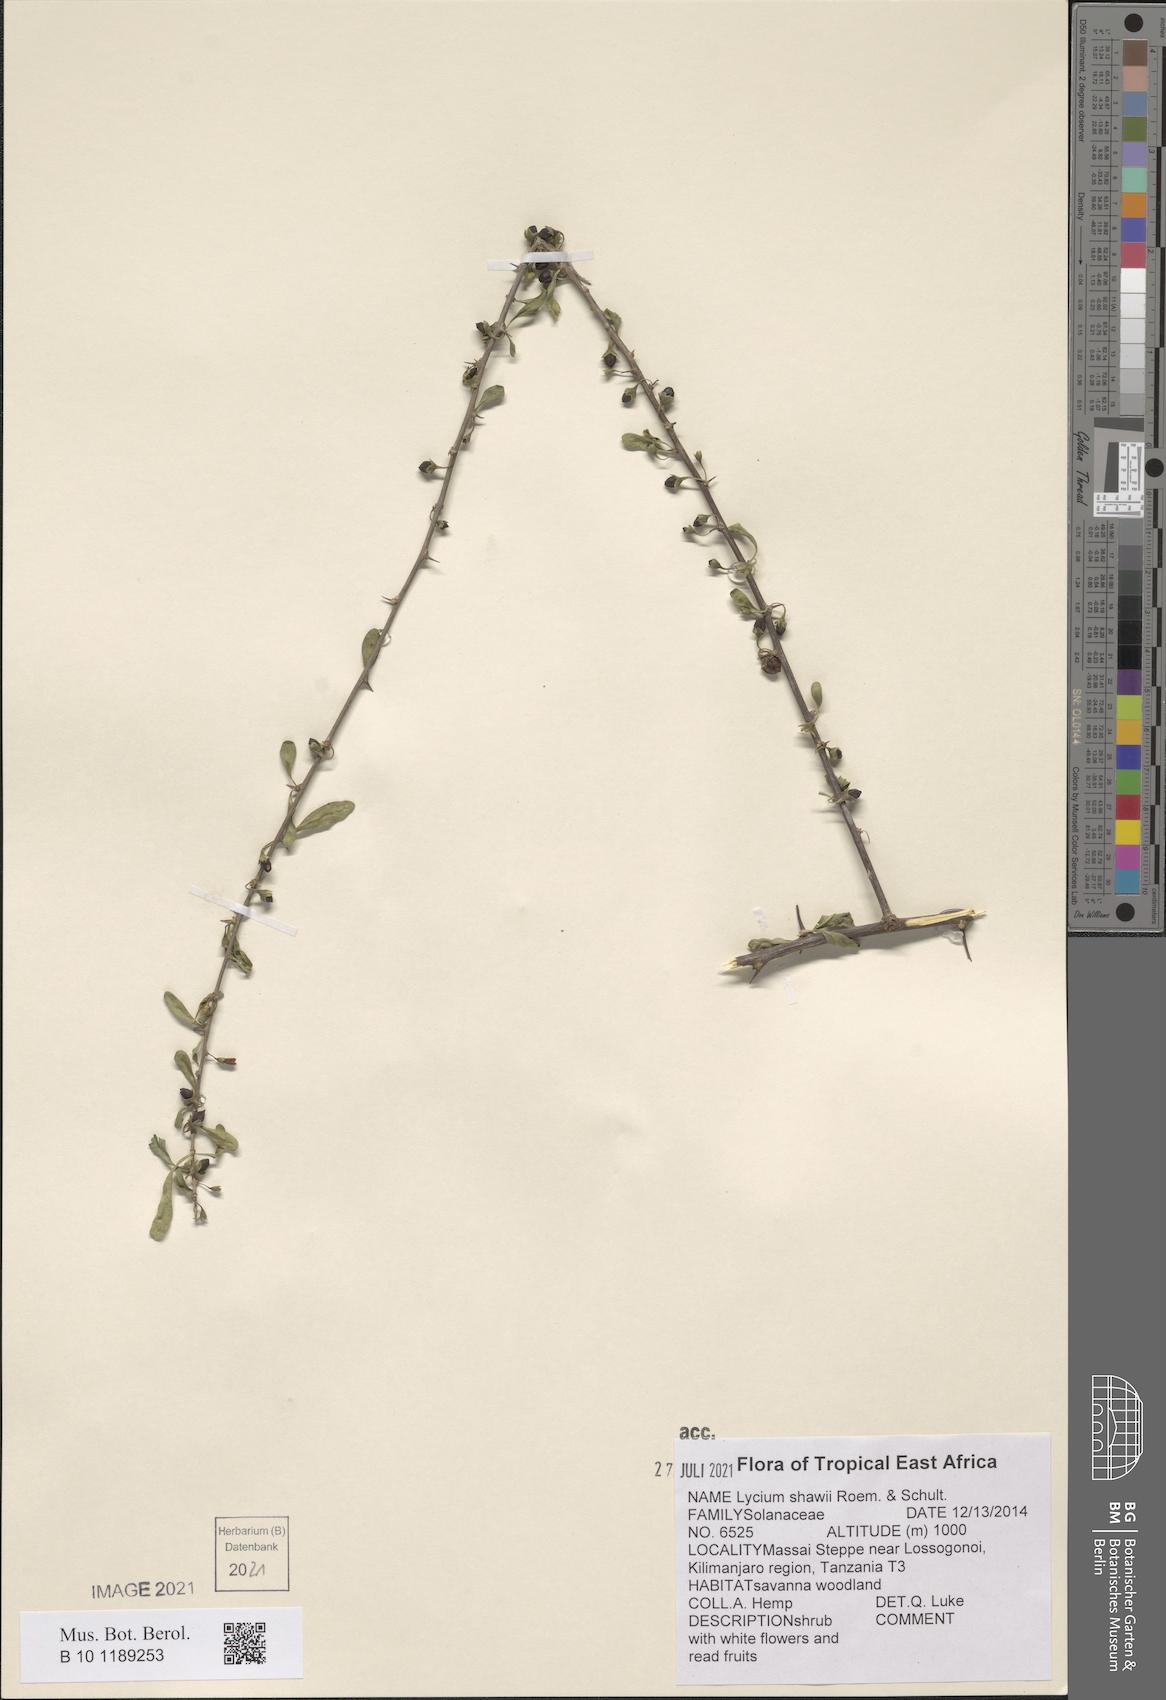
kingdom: Plantae
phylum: Tracheophyta
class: Magnoliopsida
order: Solanales
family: Solanaceae
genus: Lycium
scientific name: Lycium shawii
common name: Boxthorn
